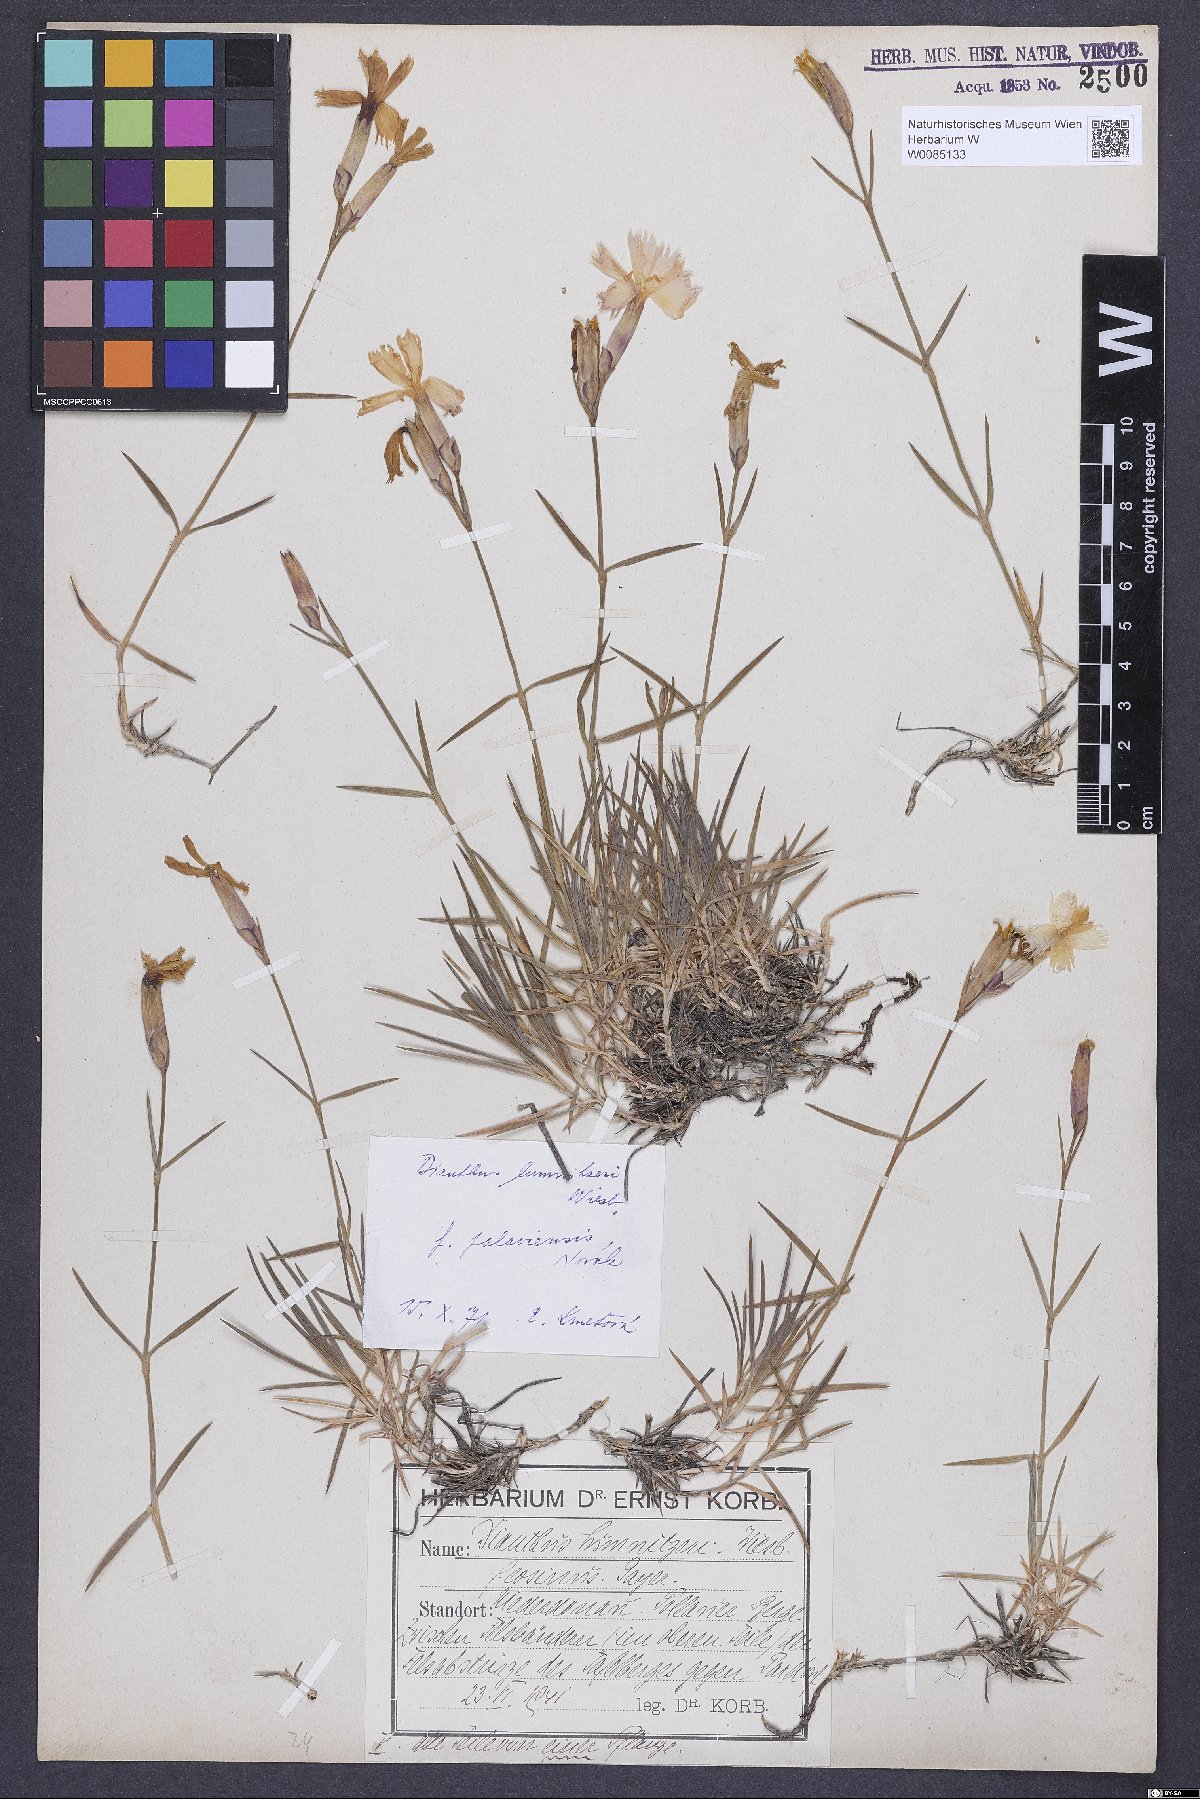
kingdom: Plantae
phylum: Tracheophyta
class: Magnoliopsida
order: Caryophyllales
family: Caryophyllaceae
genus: Dianthus
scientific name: Dianthus praecox
